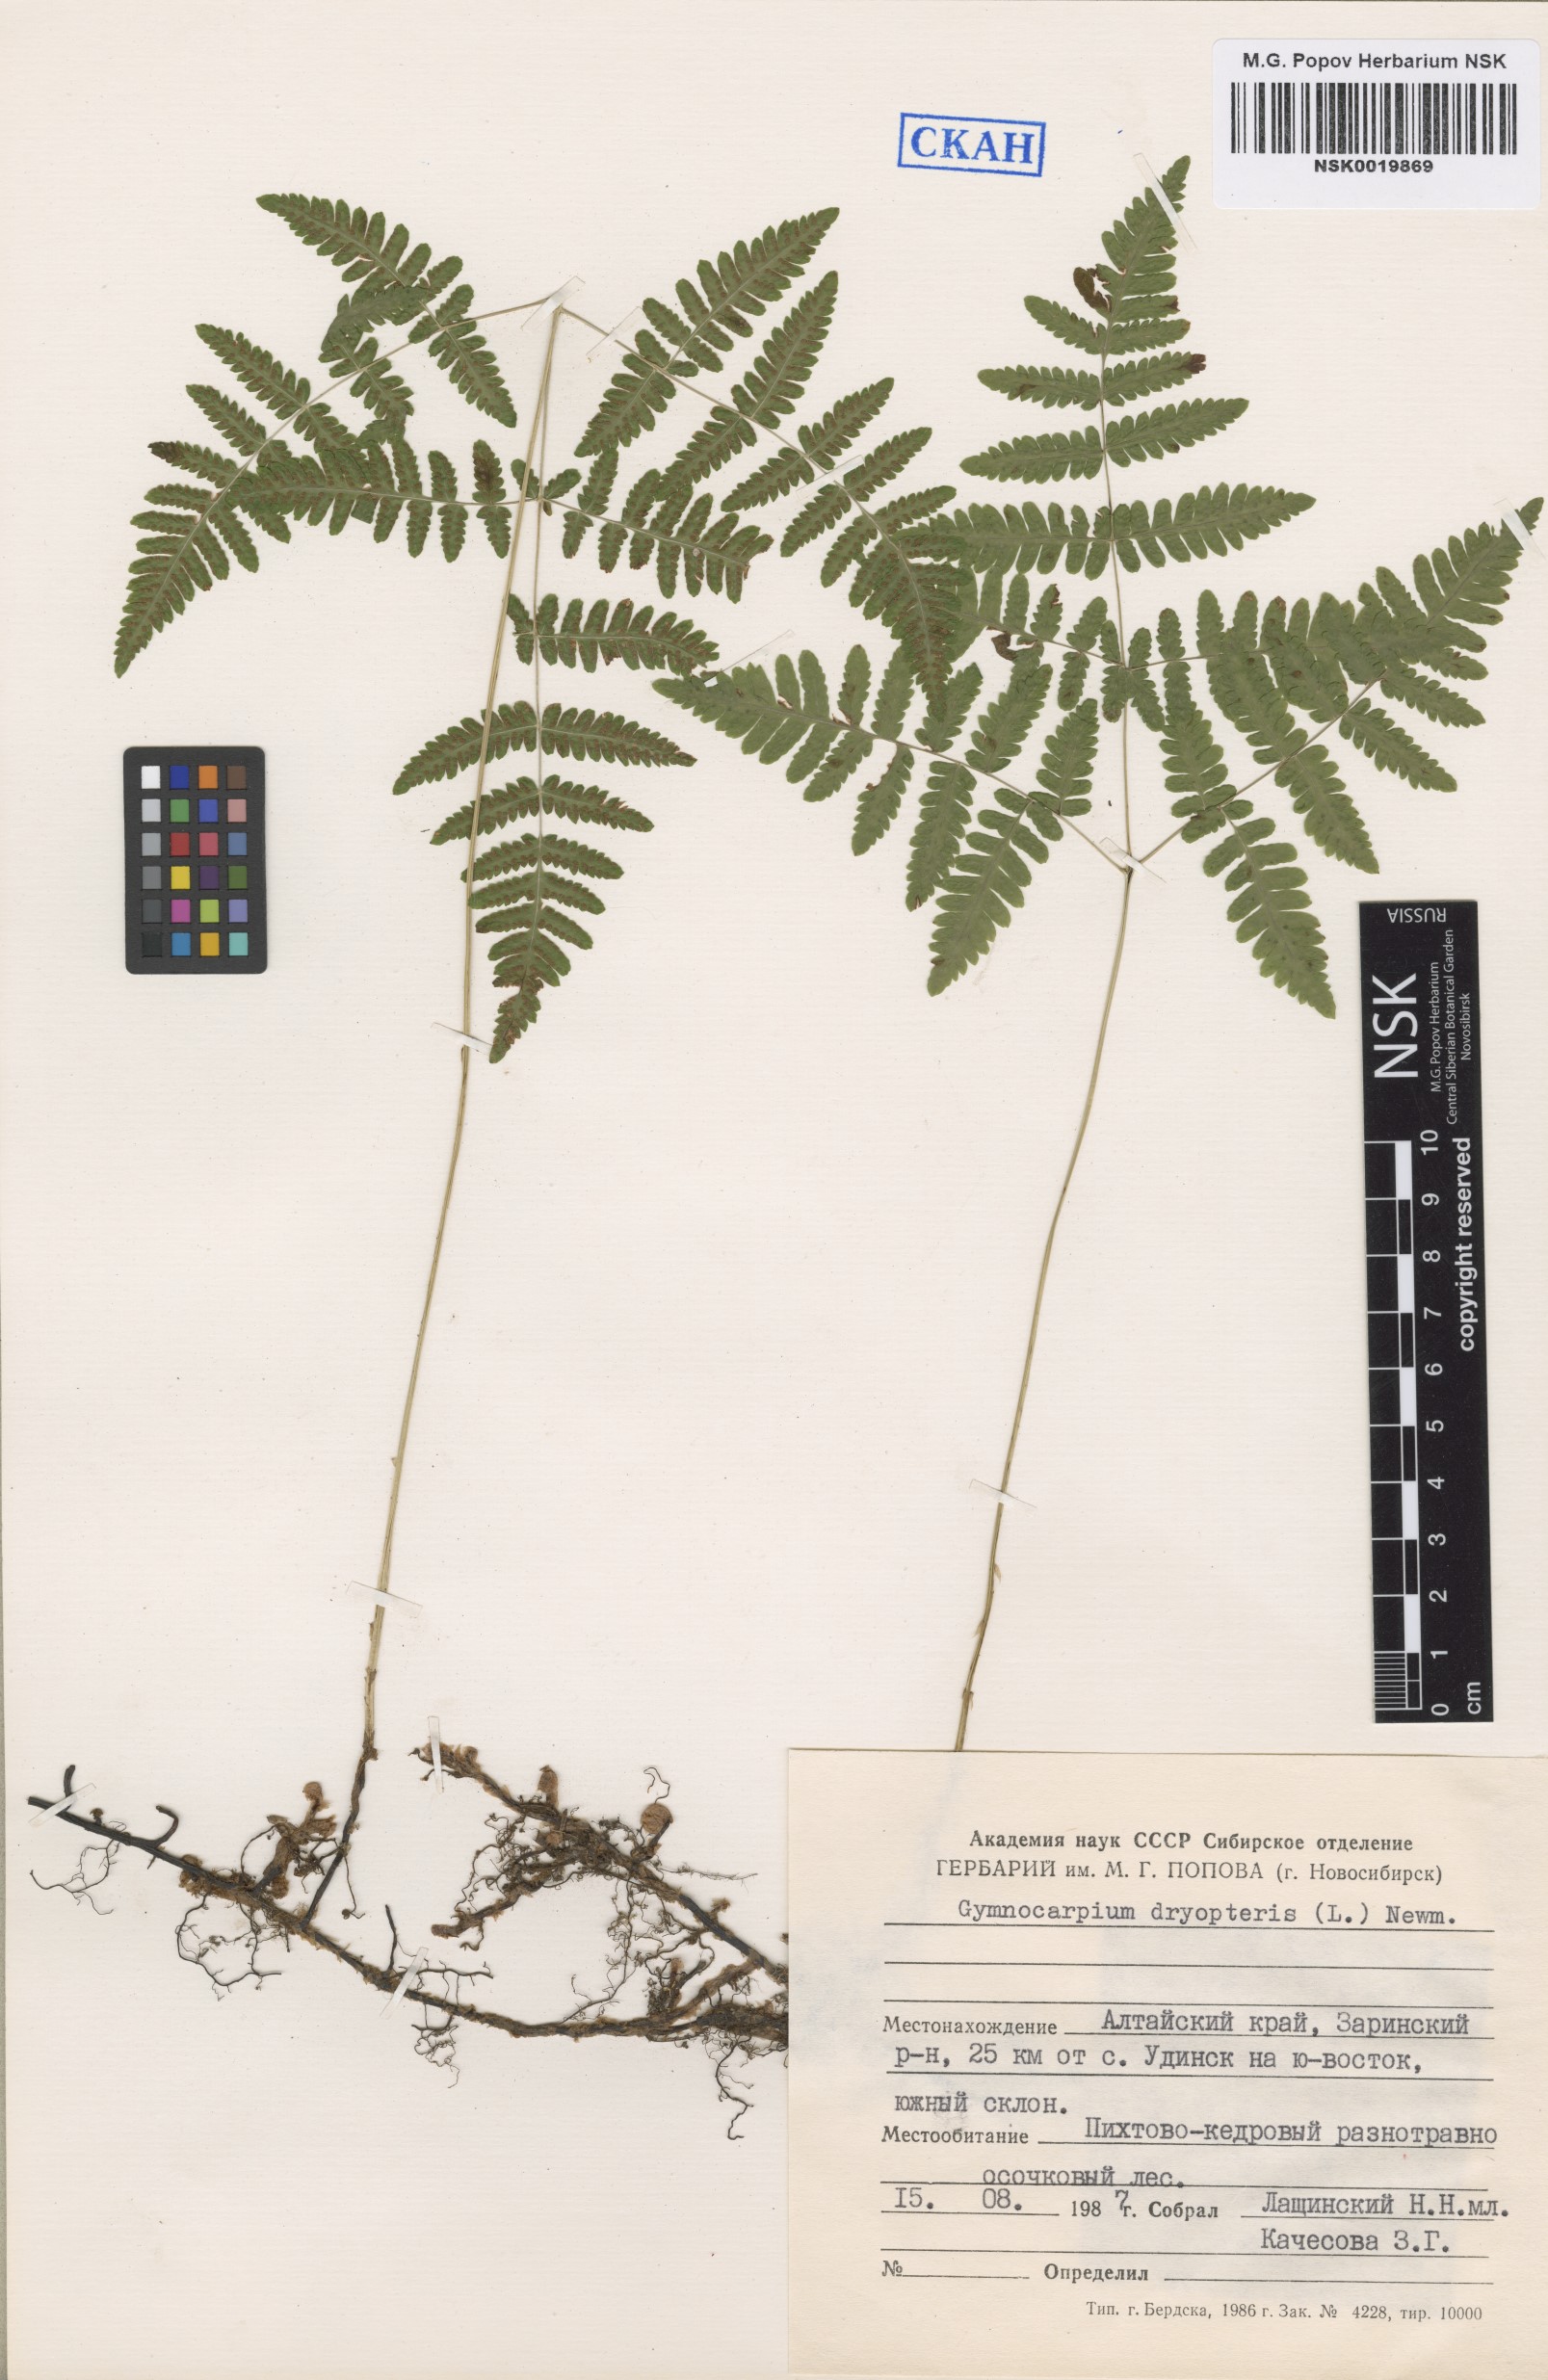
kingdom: Plantae
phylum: Tracheophyta
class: Polypodiopsida
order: Polypodiales
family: Cystopteridaceae
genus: Gymnocarpium
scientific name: Gymnocarpium dryopteris
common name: Oak fern
